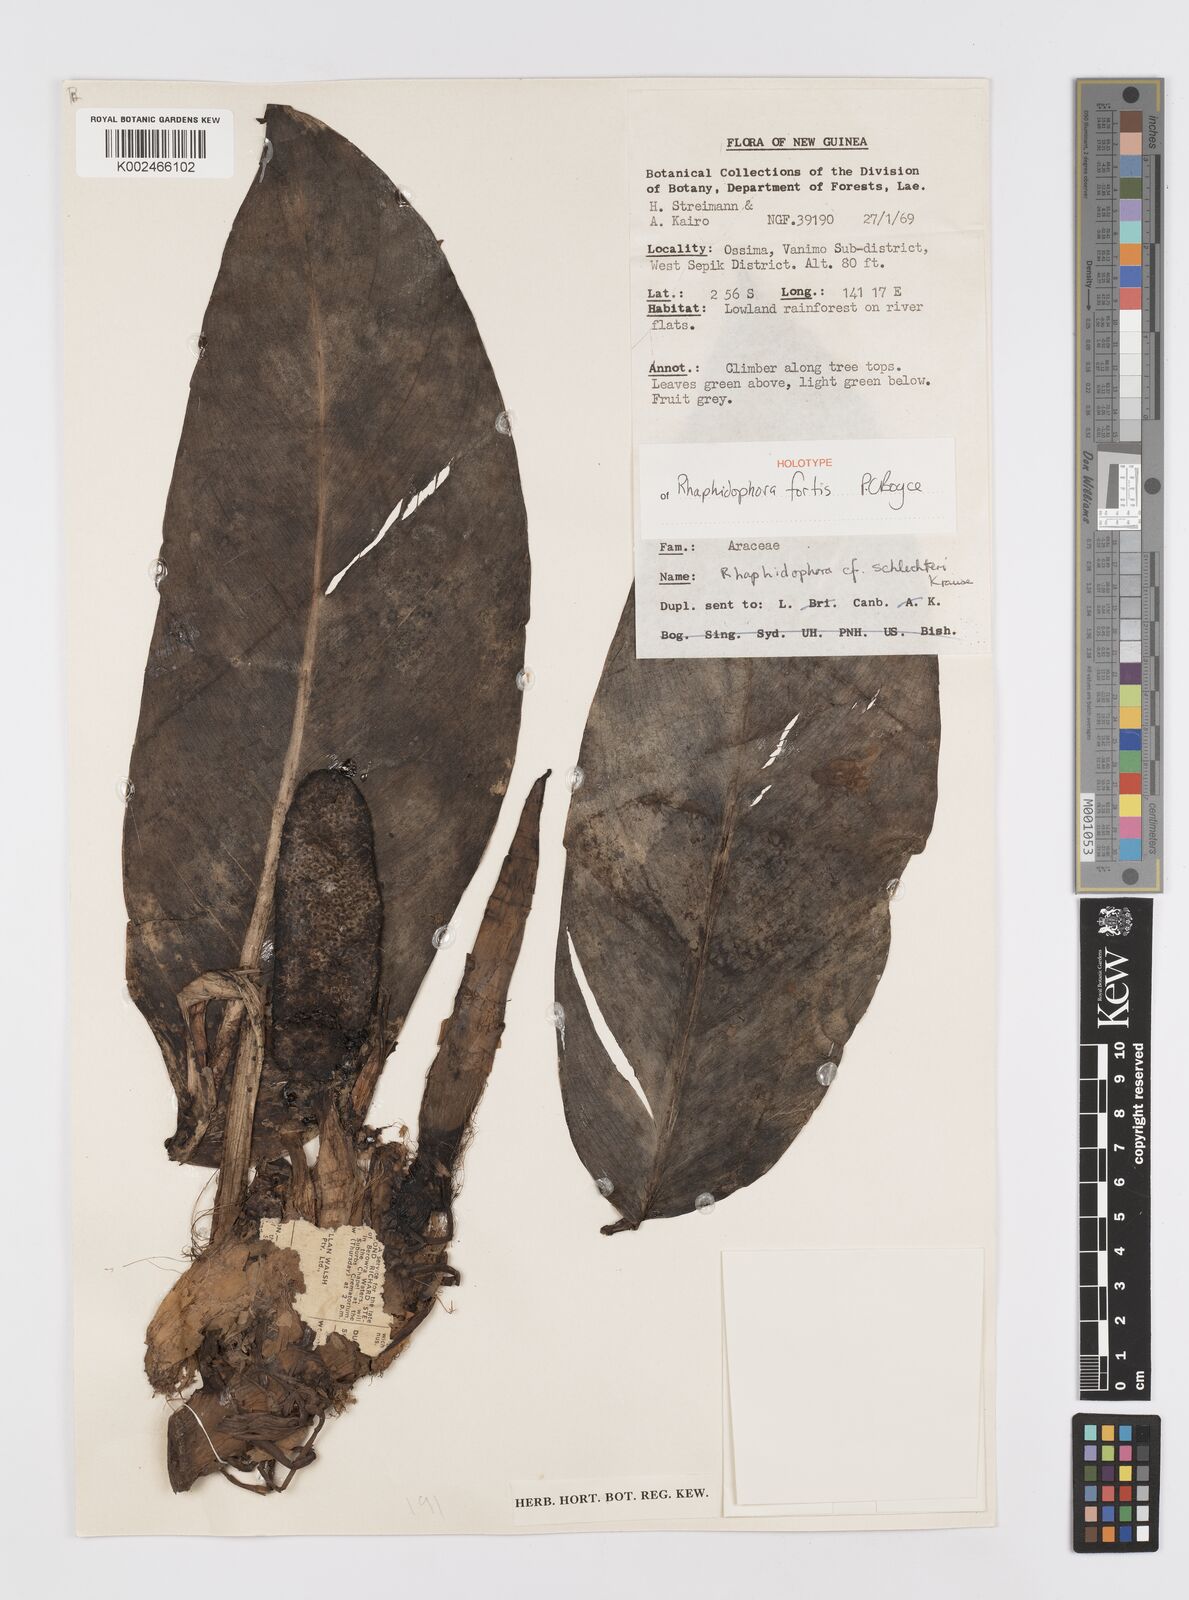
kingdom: Plantae
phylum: Tracheophyta
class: Liliopsida
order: Alismatales
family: Araceae
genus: Rhaphidophora
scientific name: Rhaphidophora fortis
